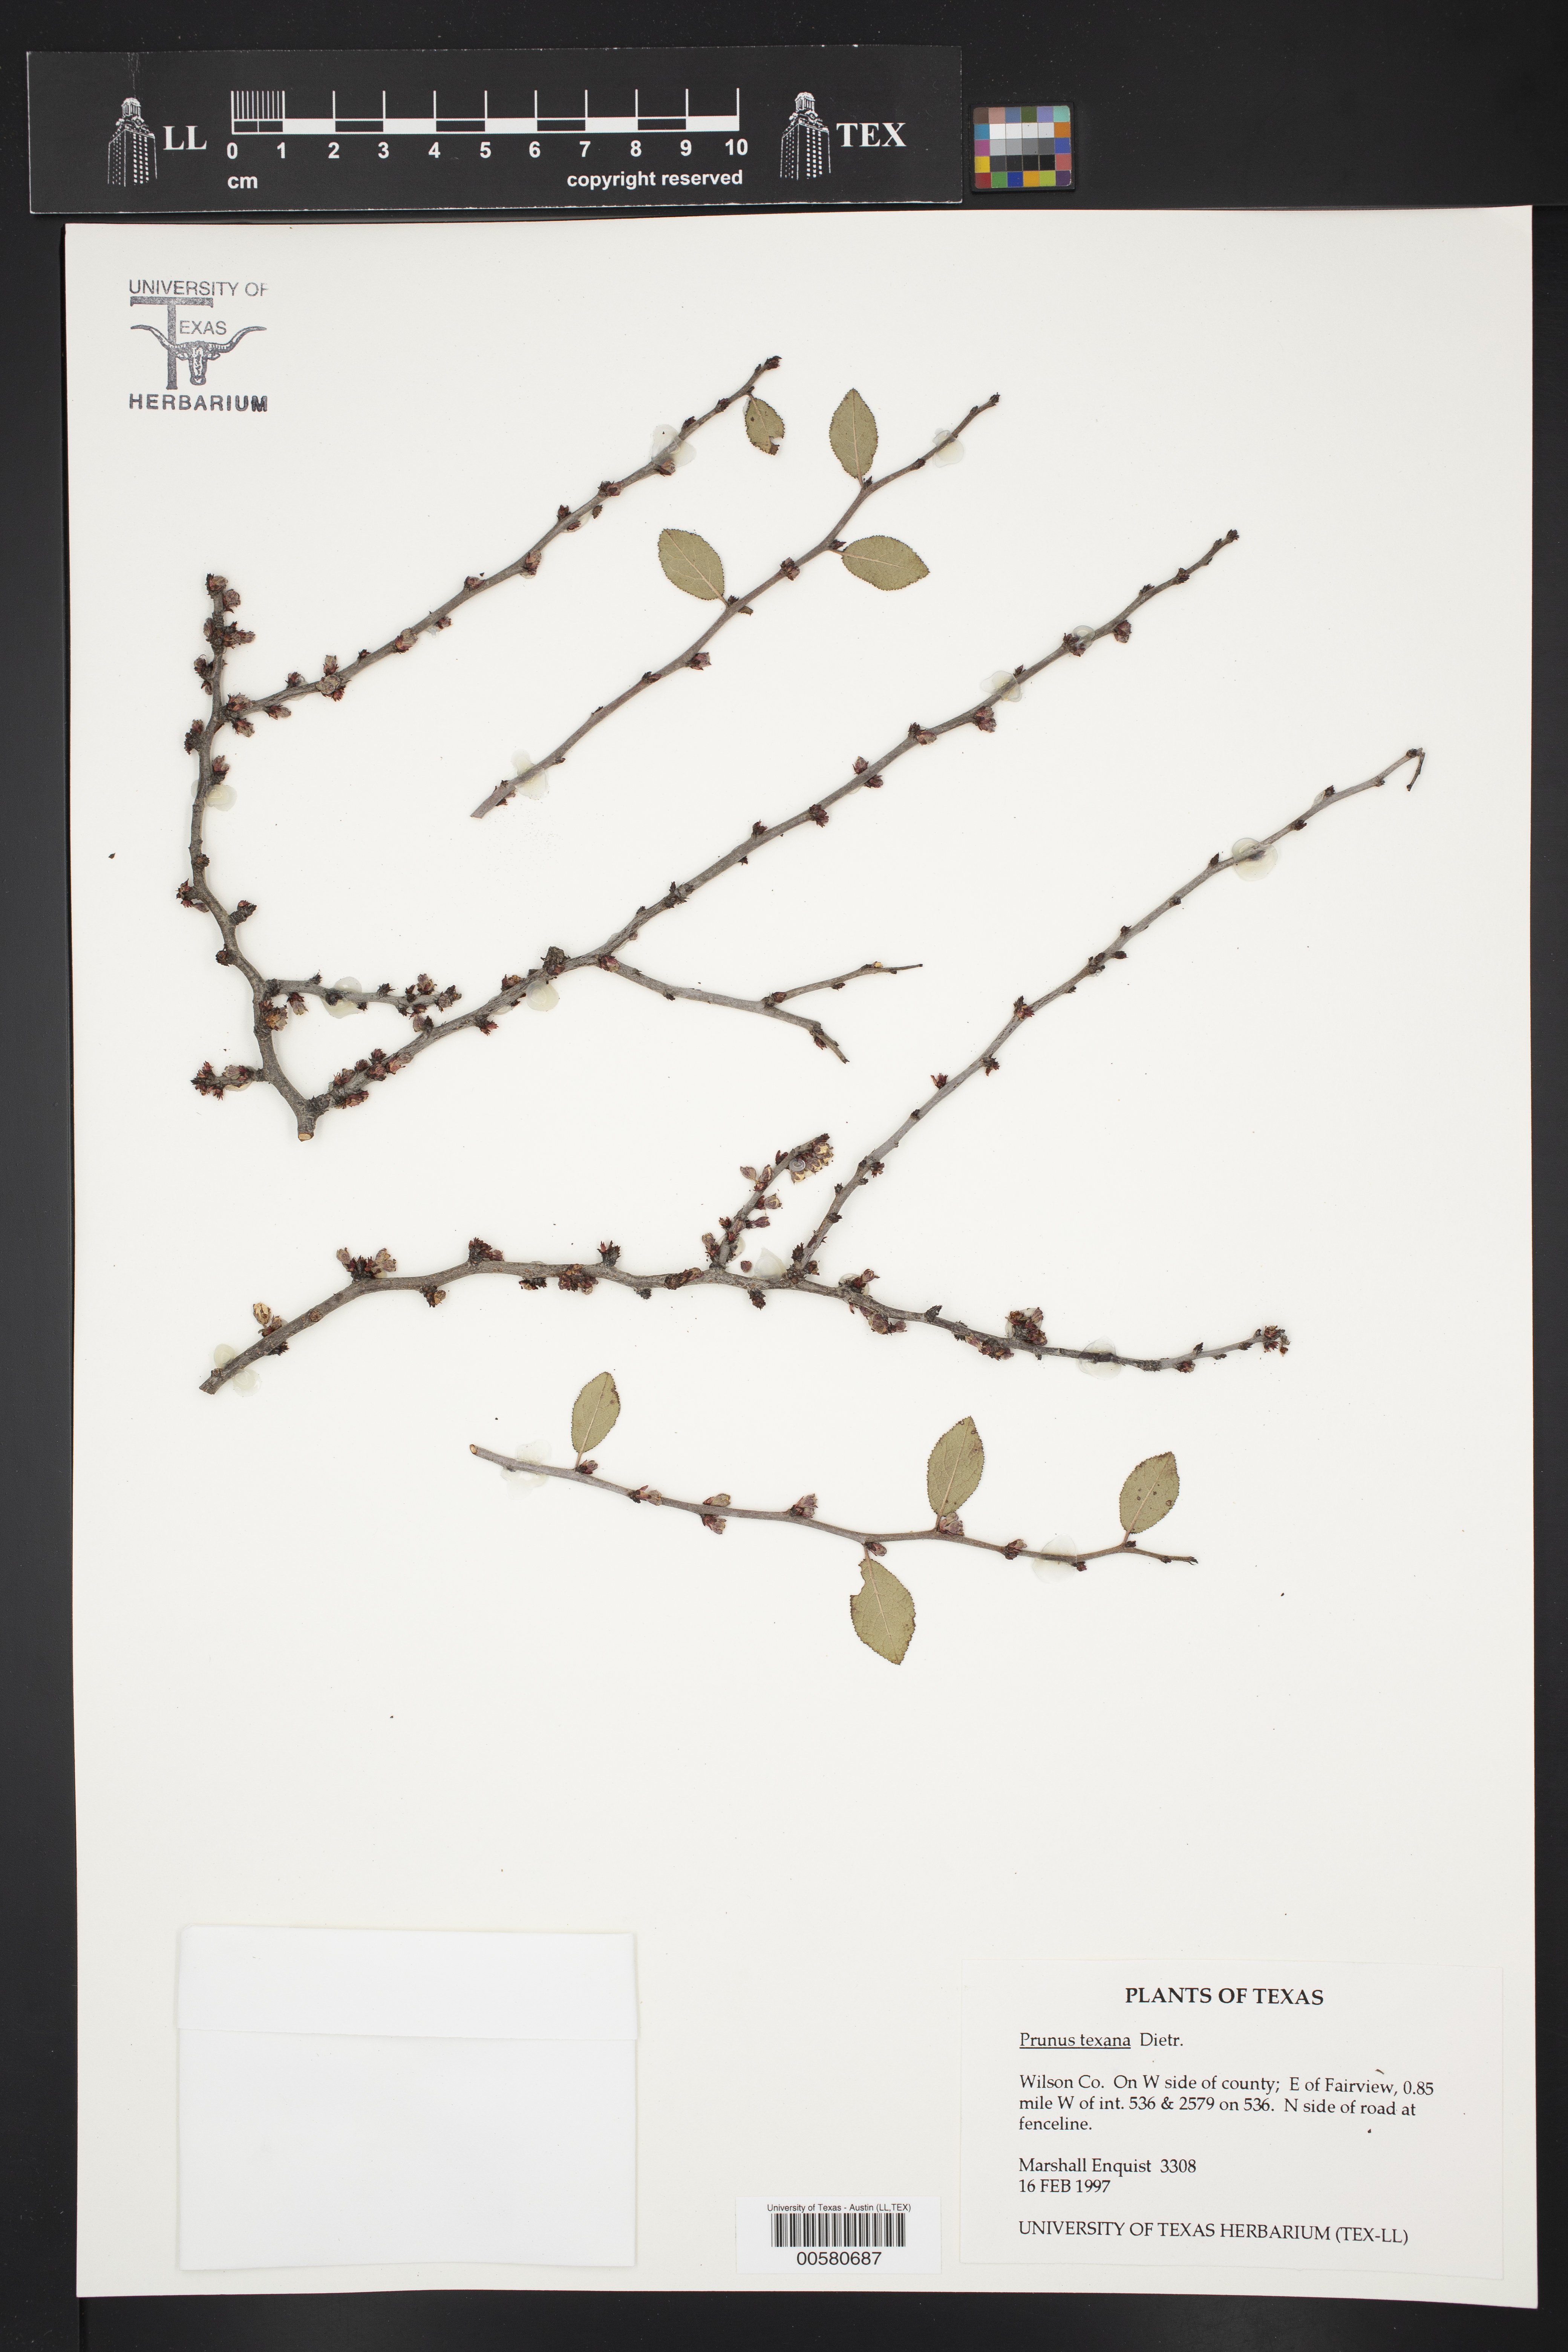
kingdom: Plantae
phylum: Tracheophyta
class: Magnoliopsida
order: Rosales
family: Rosaceae
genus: Prunus
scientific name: Prunus texana
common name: Texas almond cherry
